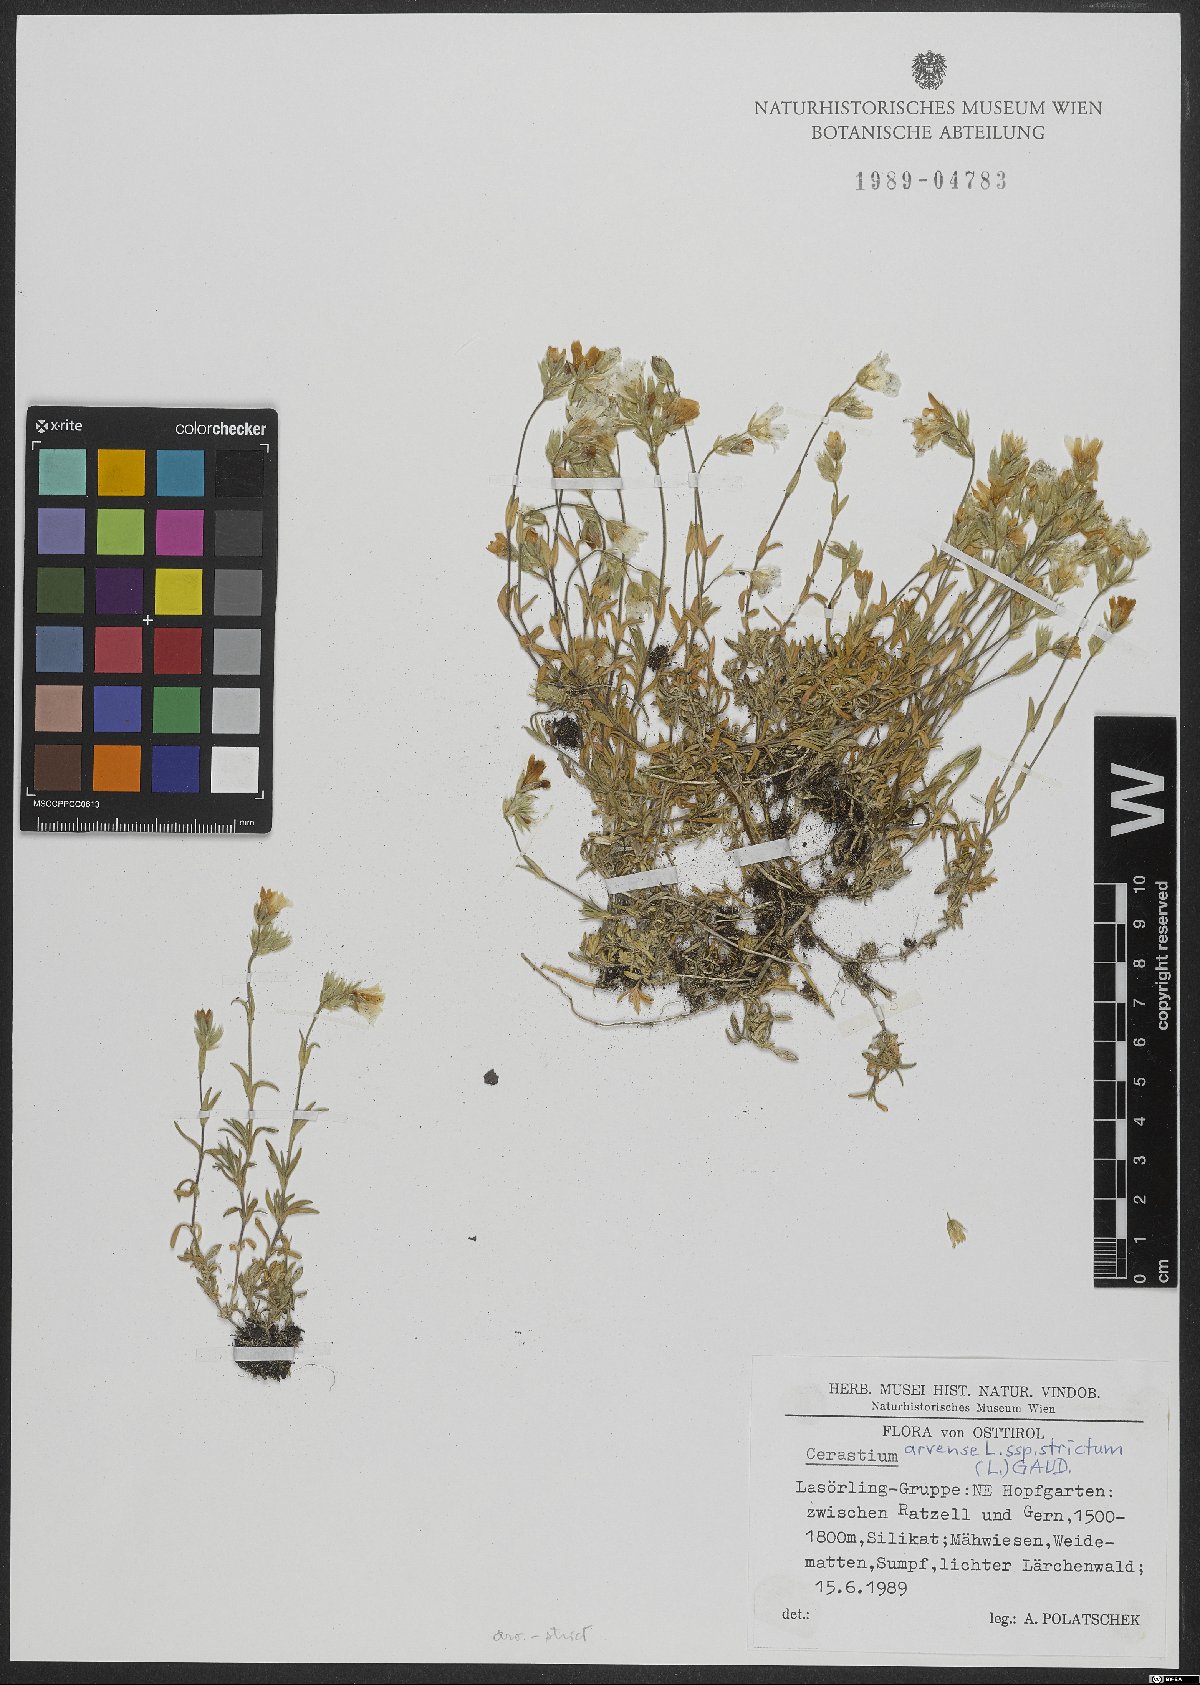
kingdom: Plantae
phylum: Tracheophyta
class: Magnoliopsida
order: Caryophyllales
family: Caryophyllaceae
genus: Cerastium
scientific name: Cerastium elongatum
